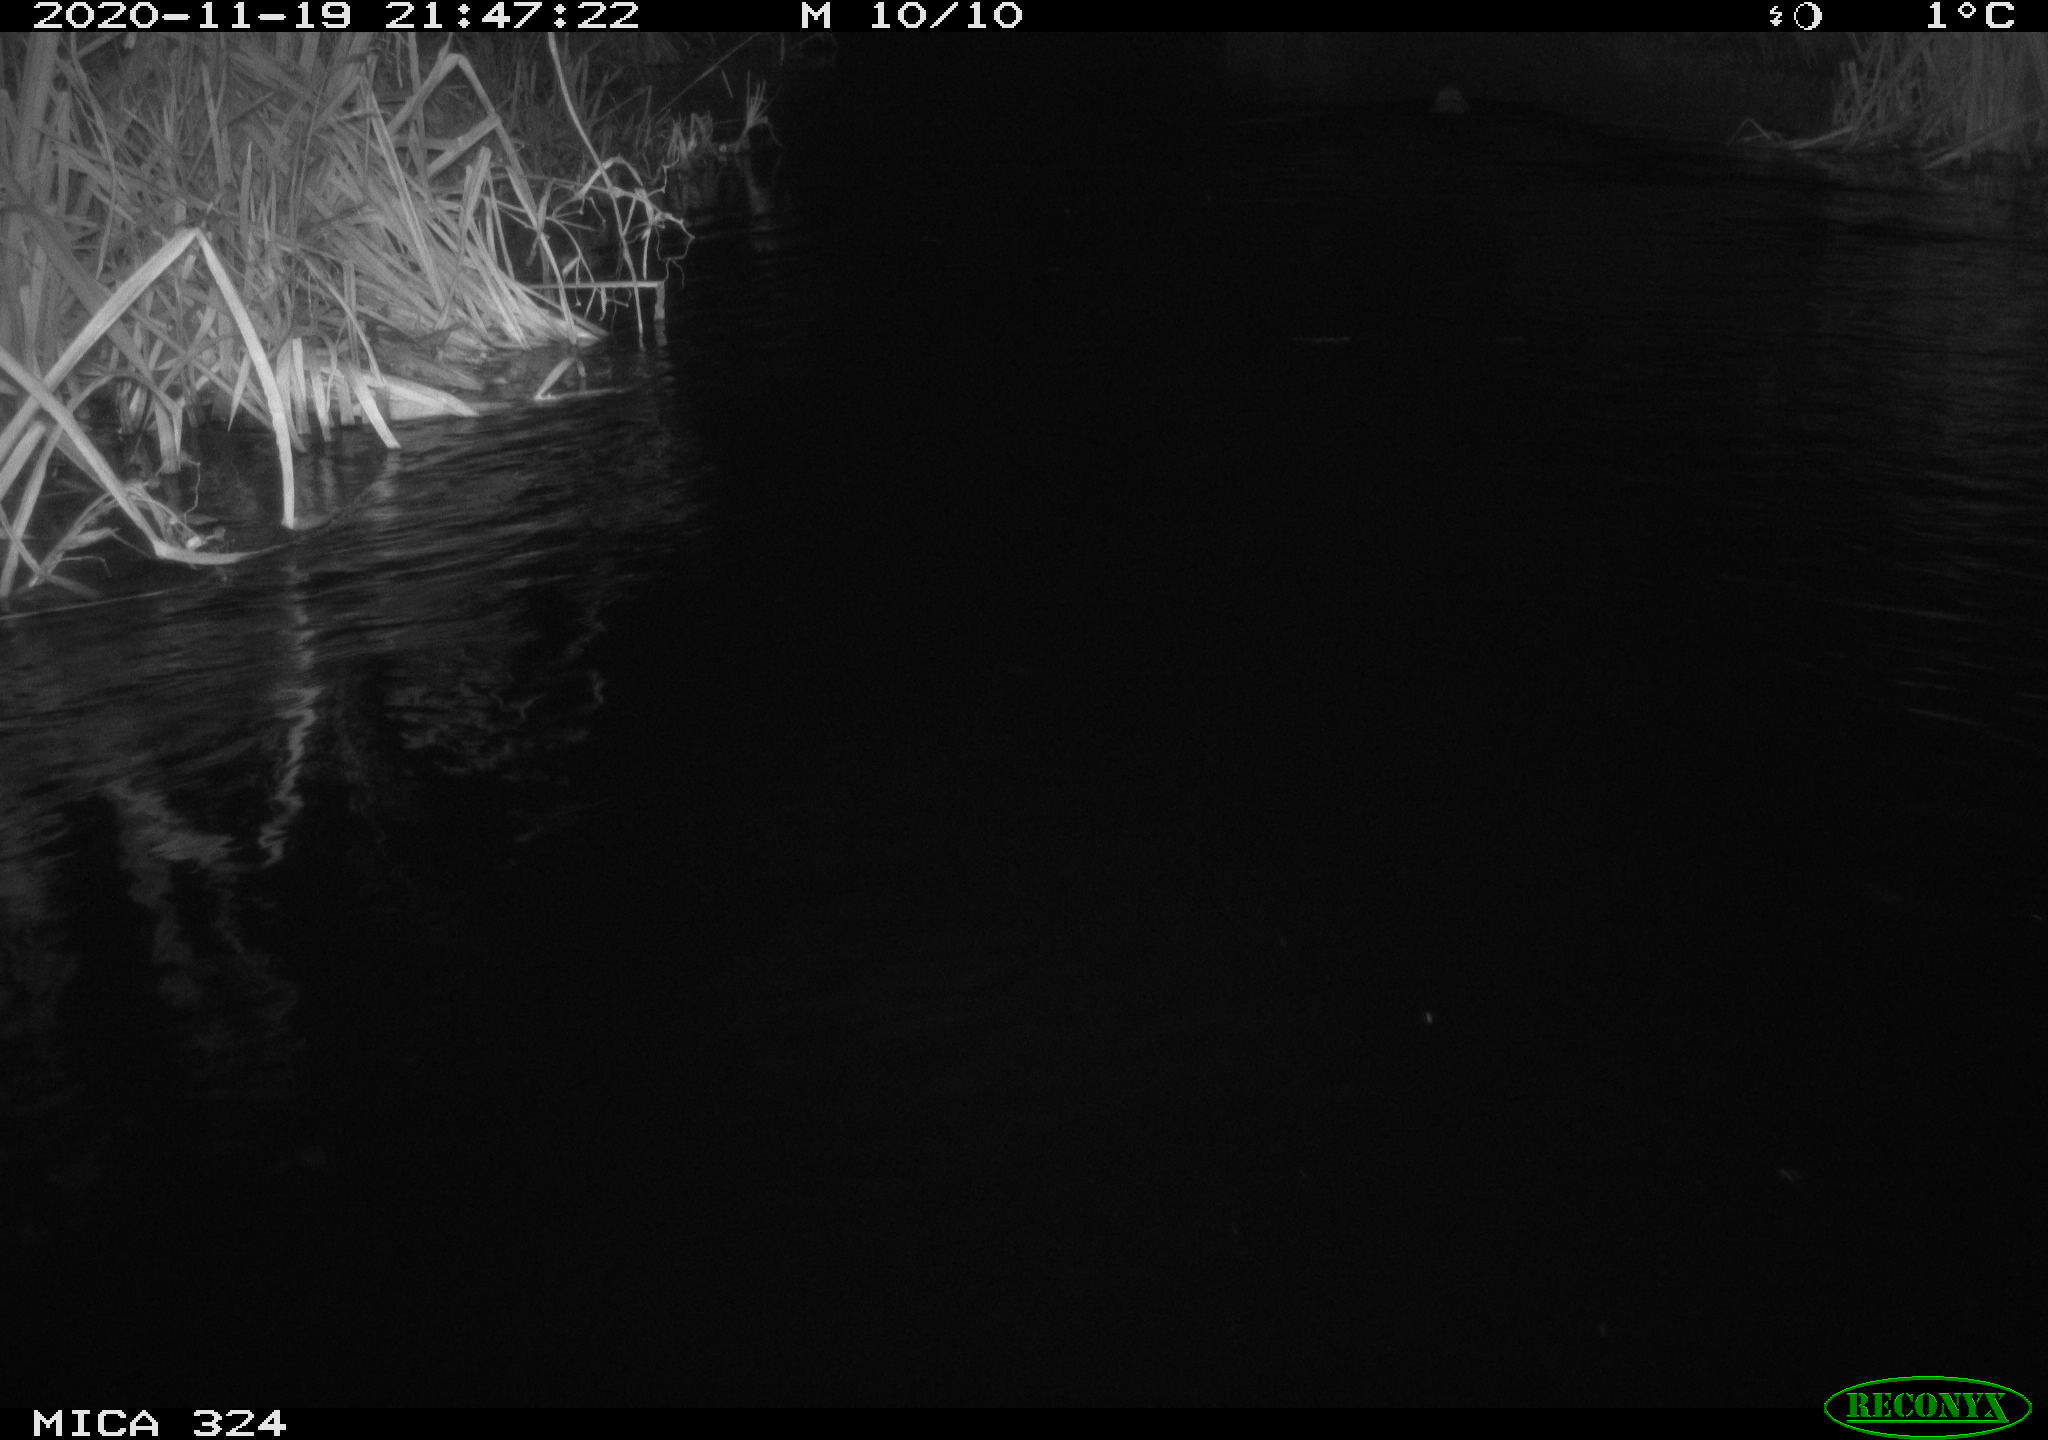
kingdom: Animalia
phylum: Chordata
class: Mammalia
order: Rodentia
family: Myocastoridae
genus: Myocastor
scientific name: Myocastor coypus
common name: Coypu
